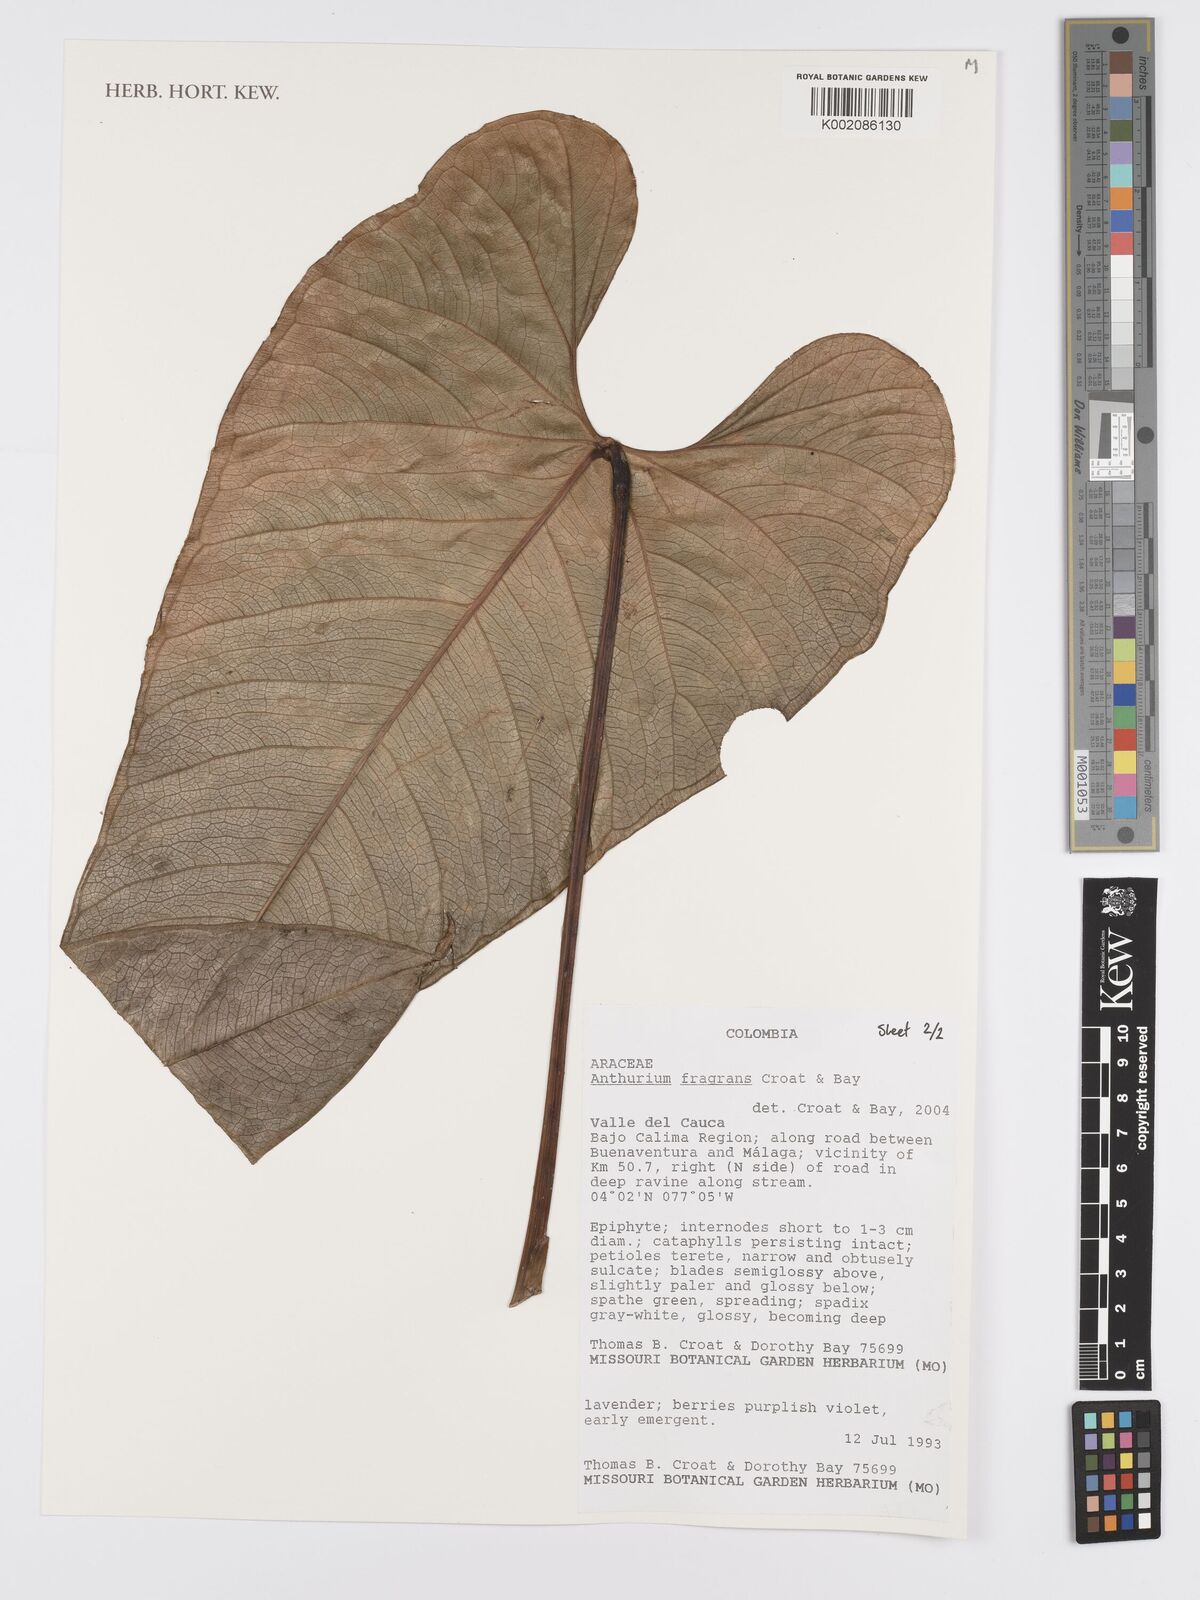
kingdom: Plantae
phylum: Tracheophyta
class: Liliopsida
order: Alismatales
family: Araceae
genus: Anthurium
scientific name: Anthurium fragrans
